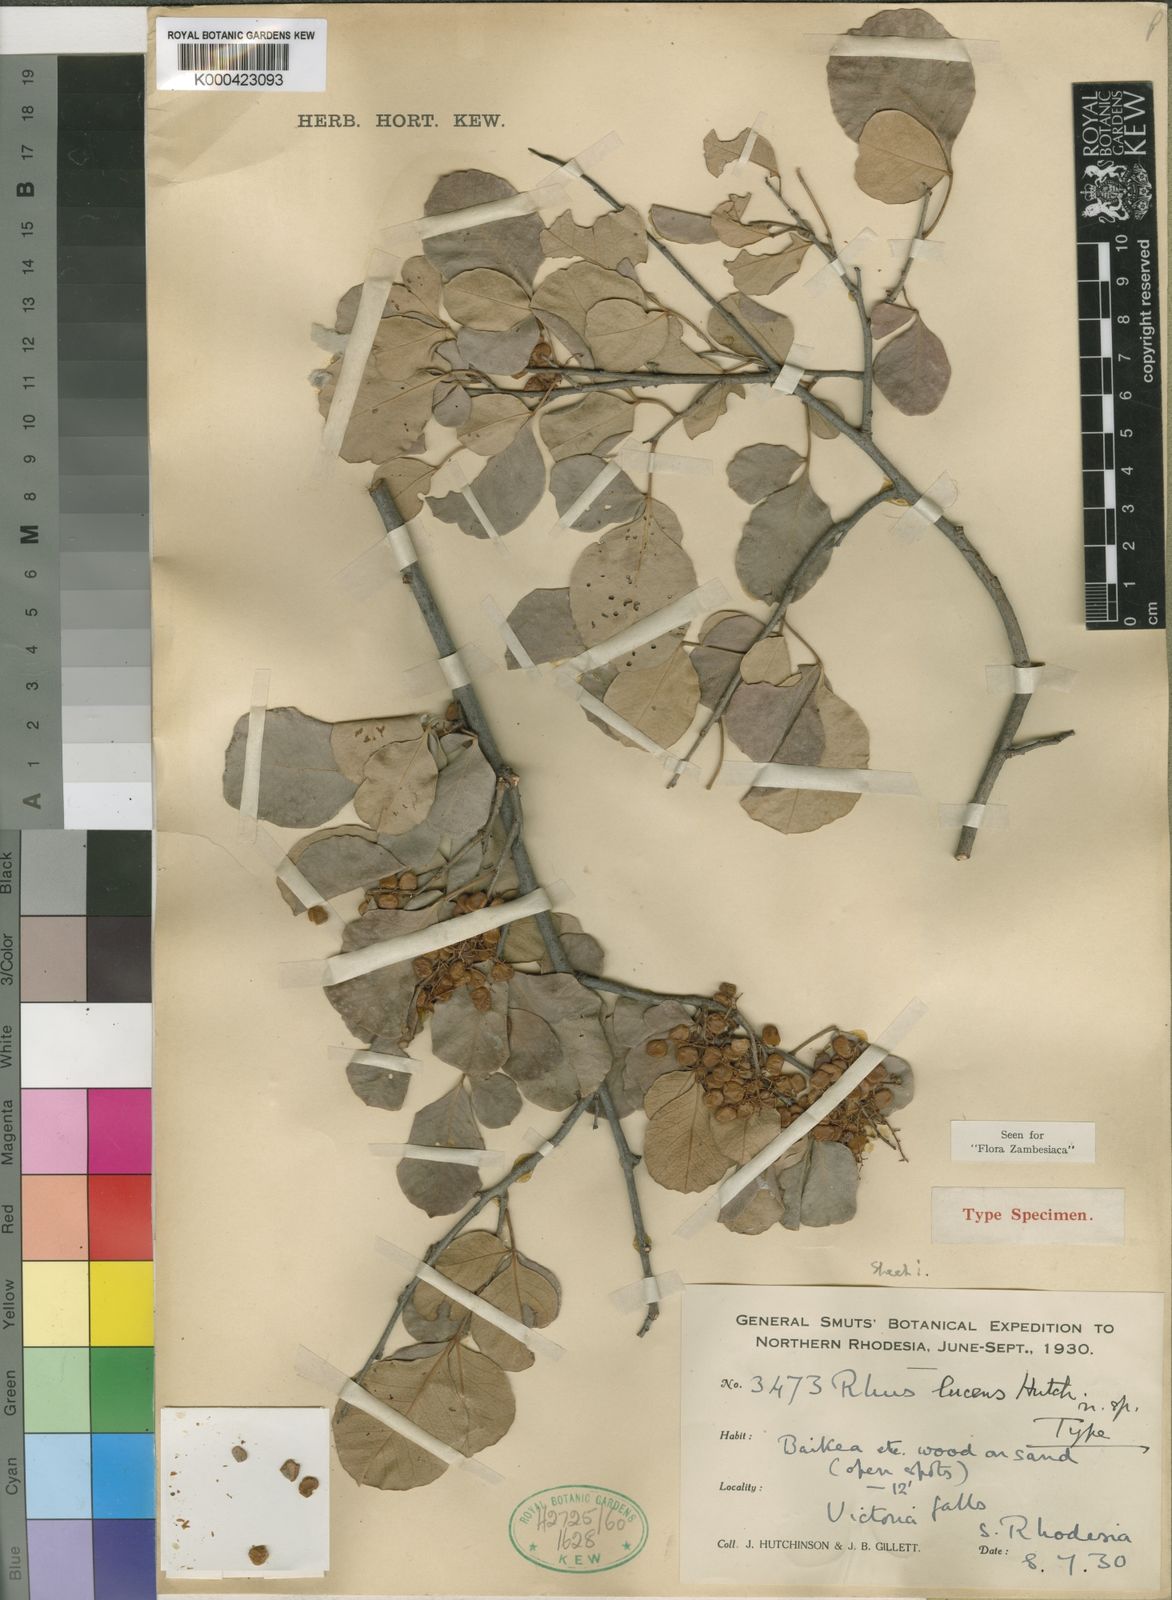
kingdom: Plantae
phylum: Tracheophyta
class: Magnoliopsida
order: Sapindales
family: Anacardiaceae
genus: Searsia
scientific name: Searsia lucens
